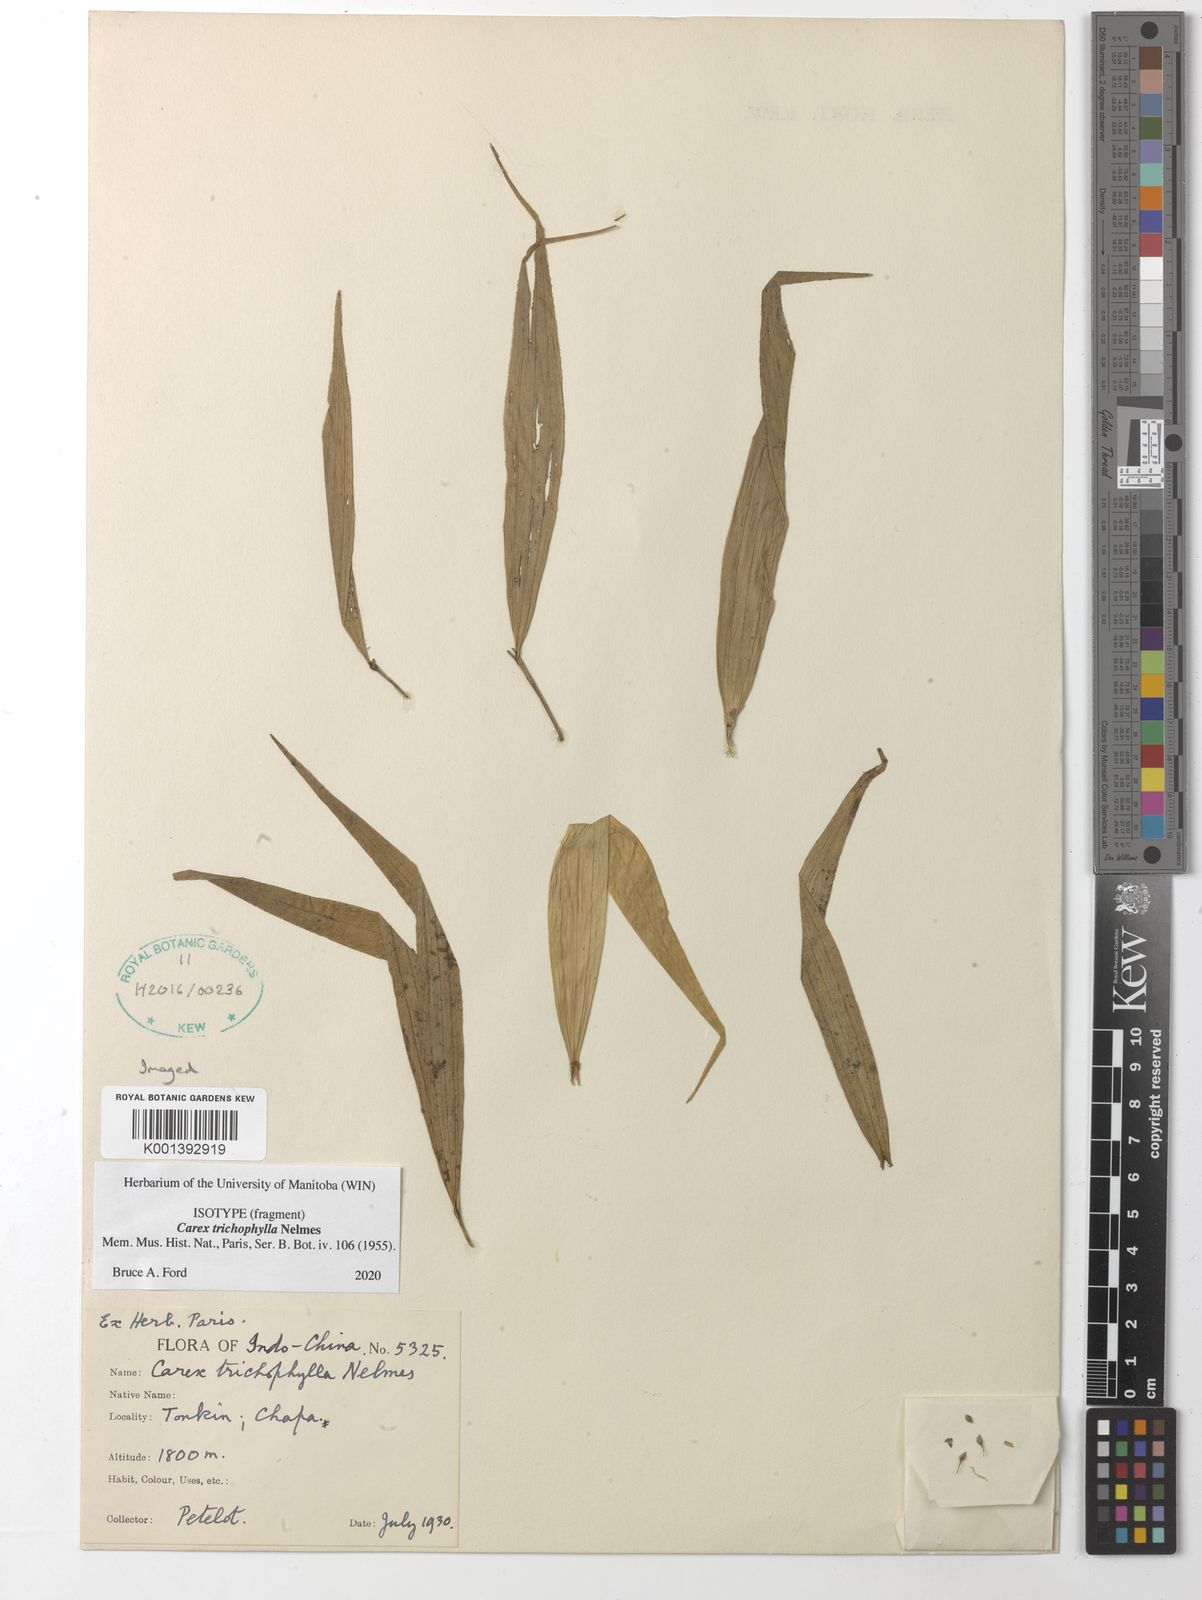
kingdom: Plantae
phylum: Tracheophyta
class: Liliopsida
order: Poales
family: Cyperaceae
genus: Carex
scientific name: Carex trichophylla
